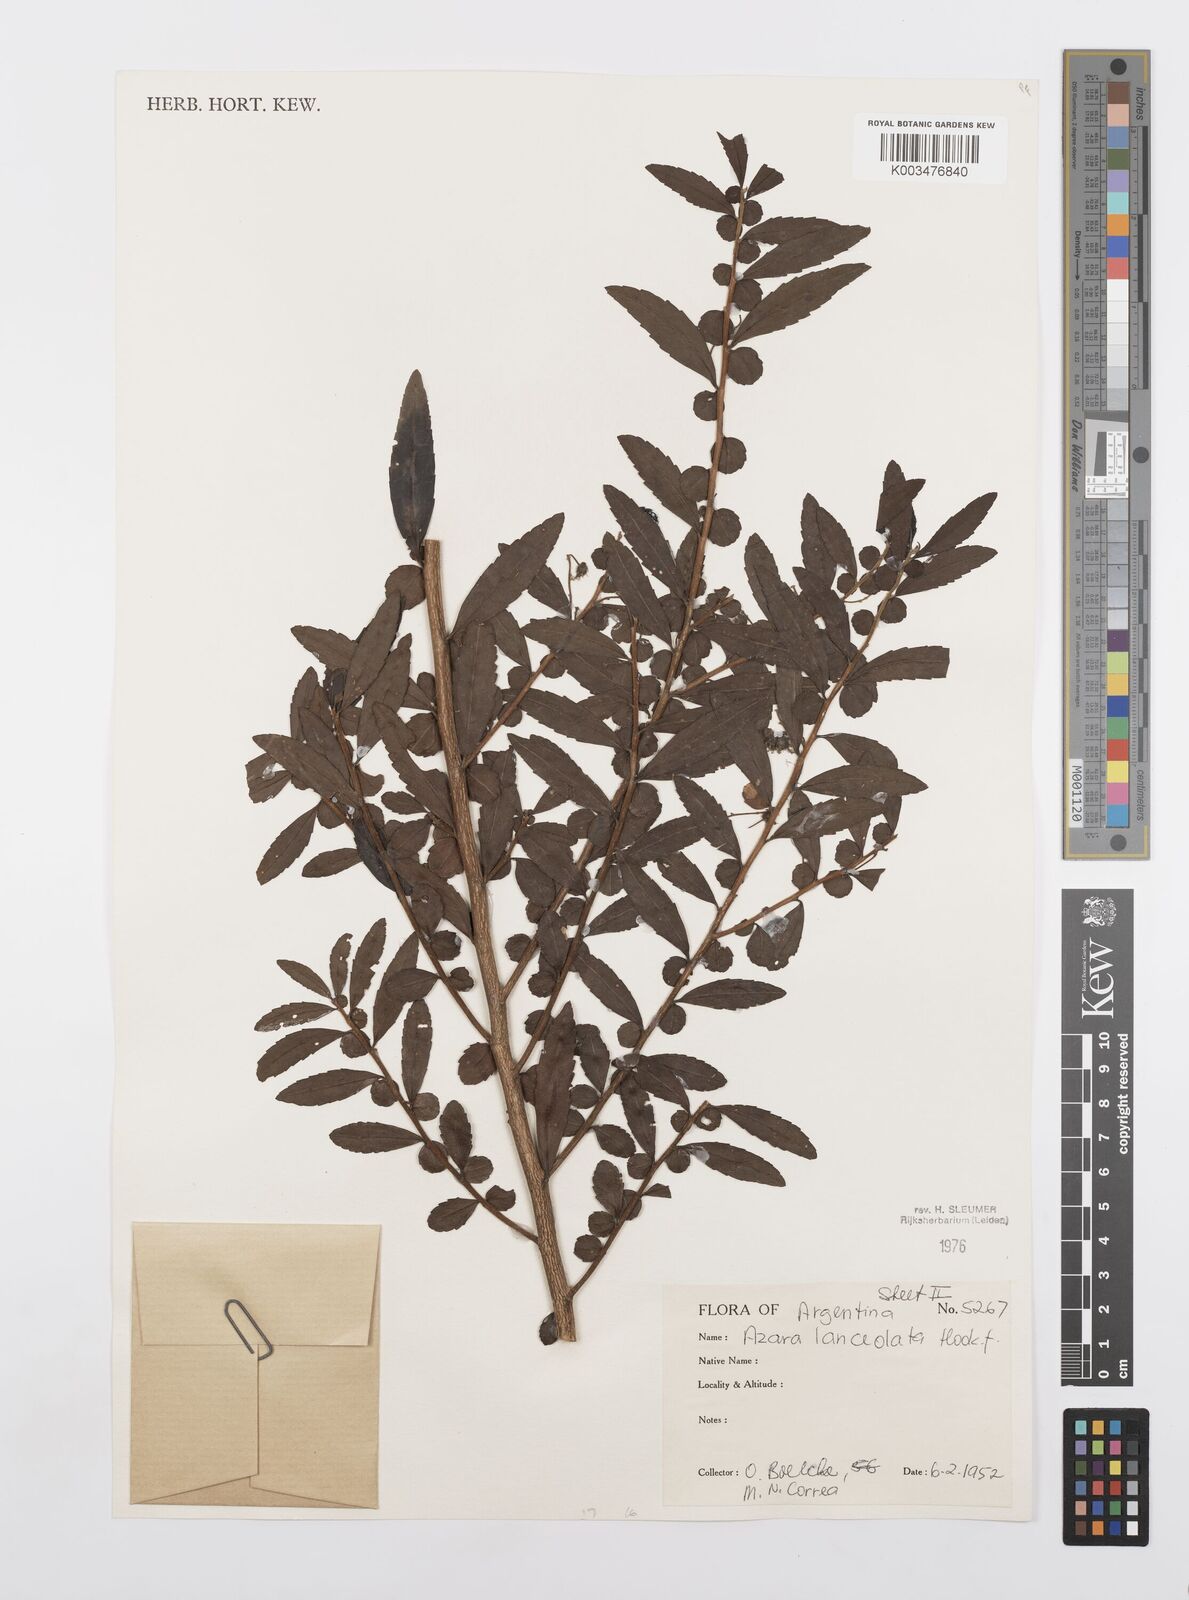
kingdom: Plantae
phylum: Tracheophyta
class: Magnoliopsida
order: Malpighiales
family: Salicaceae
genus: Azara
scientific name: Azara lanceolata
